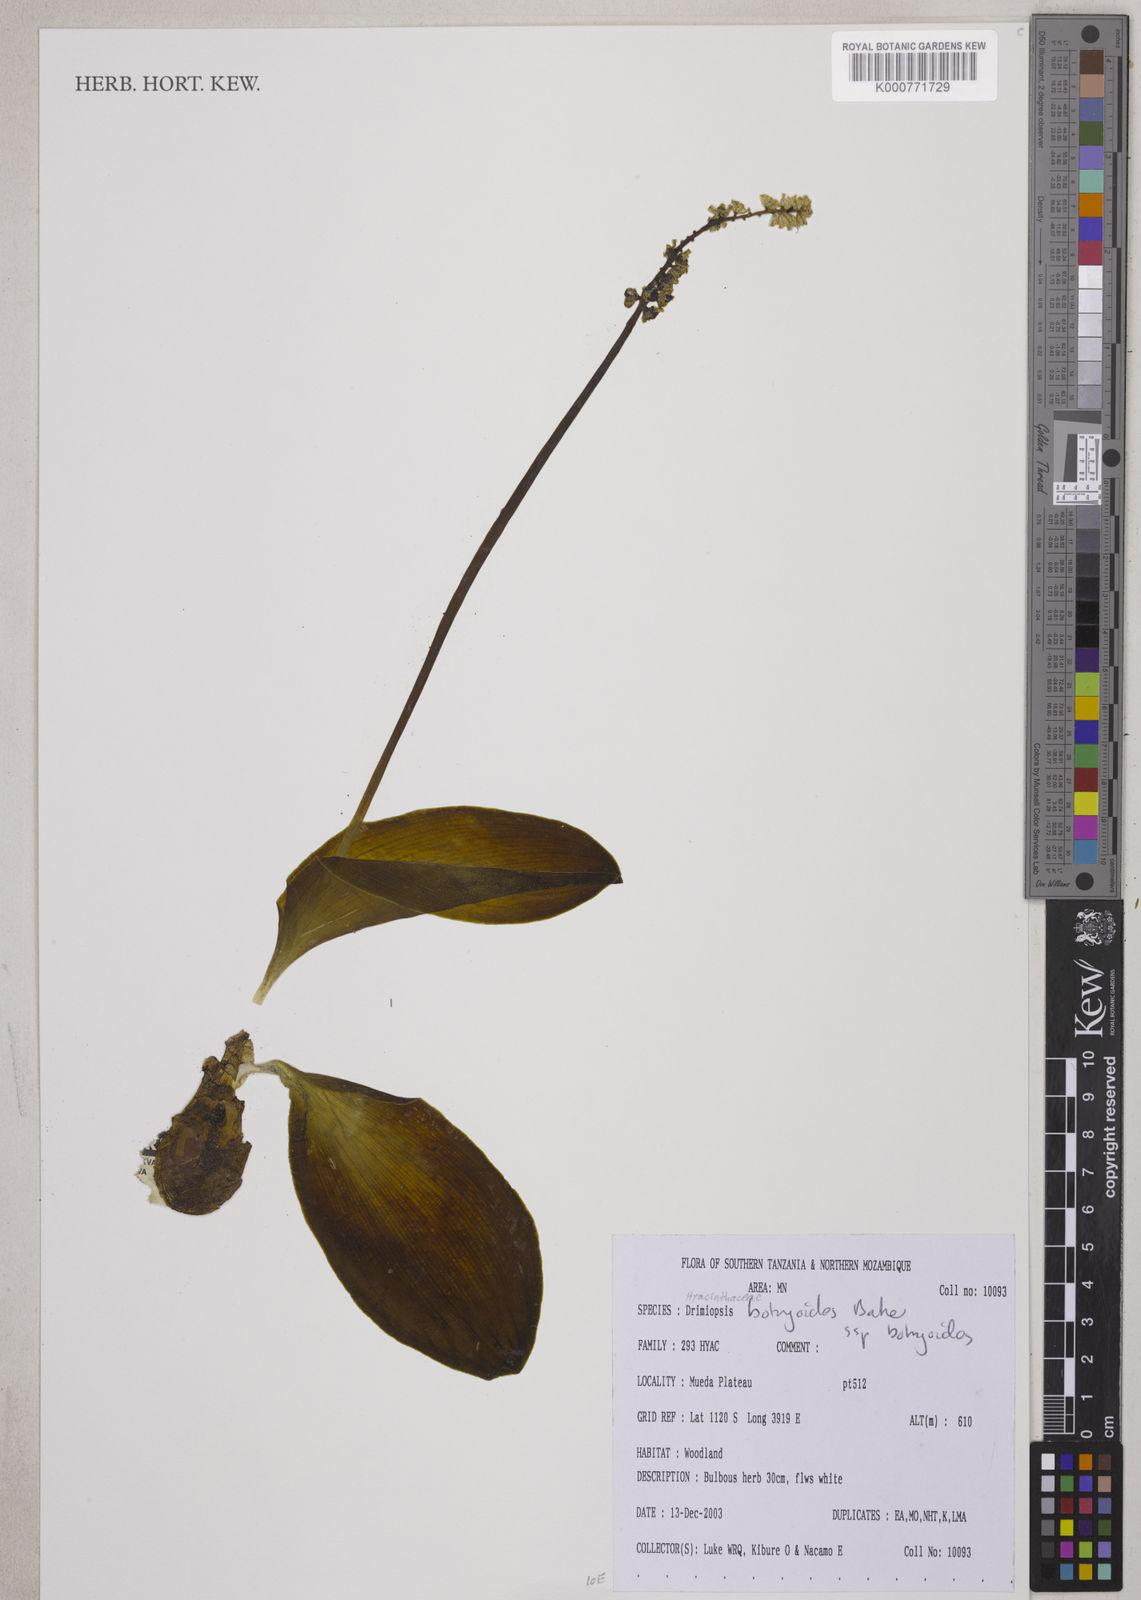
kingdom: Plantae
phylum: Tracheophyta
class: Liliopsida
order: Asparagales
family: Asparagaceae
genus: Drimiopsis
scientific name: Drimiopsis botryoides
